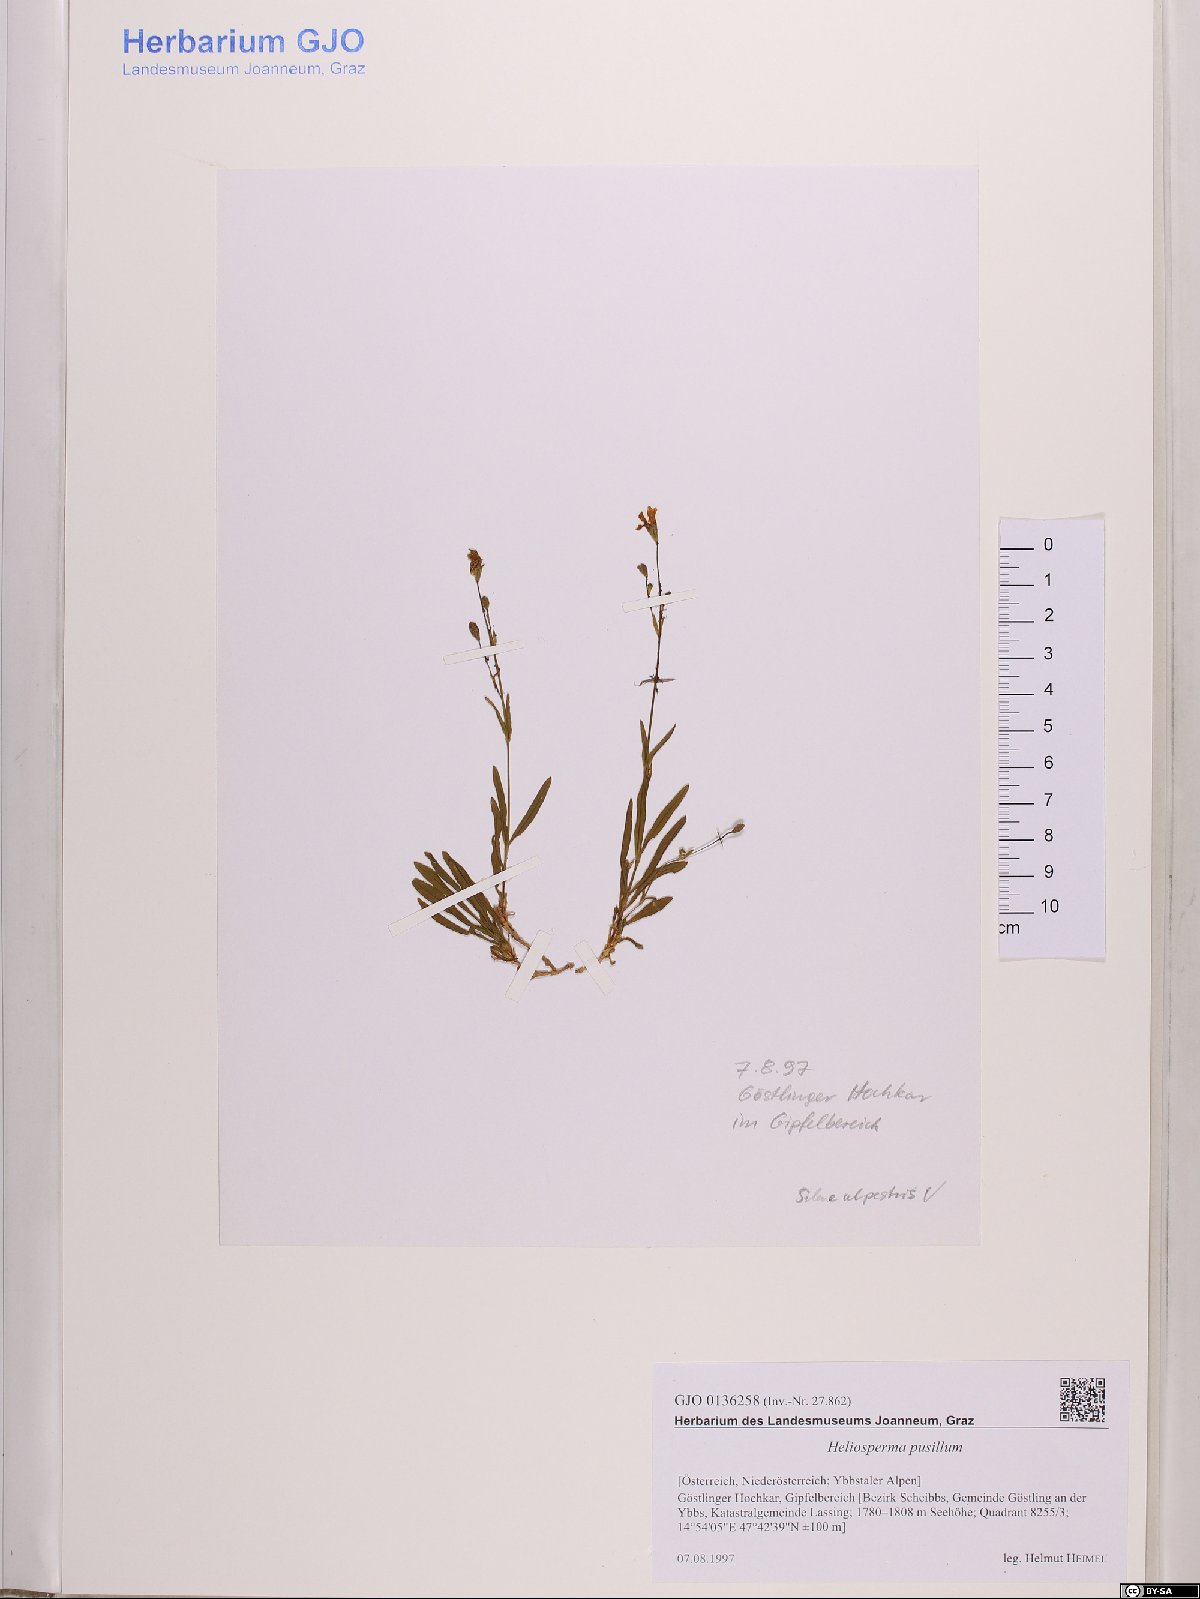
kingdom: Plantae
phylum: Tracheophyta
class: Magnoliopsida
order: Caryophyllales
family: Caryophyllaceae
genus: Heliosperma
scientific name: Heliosperma pusillum
